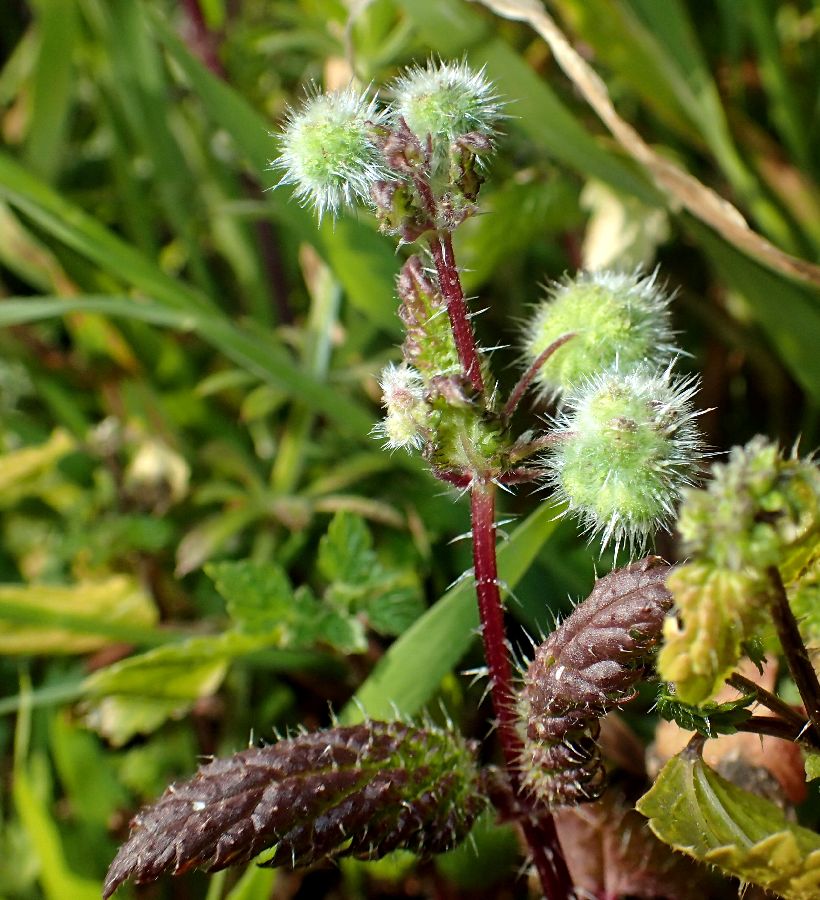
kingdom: Plantae
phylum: Tracheophyta
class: Magnoliopsida
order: Rosales
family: Urticaceae
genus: Urtica
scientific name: Urtica pilulifera
